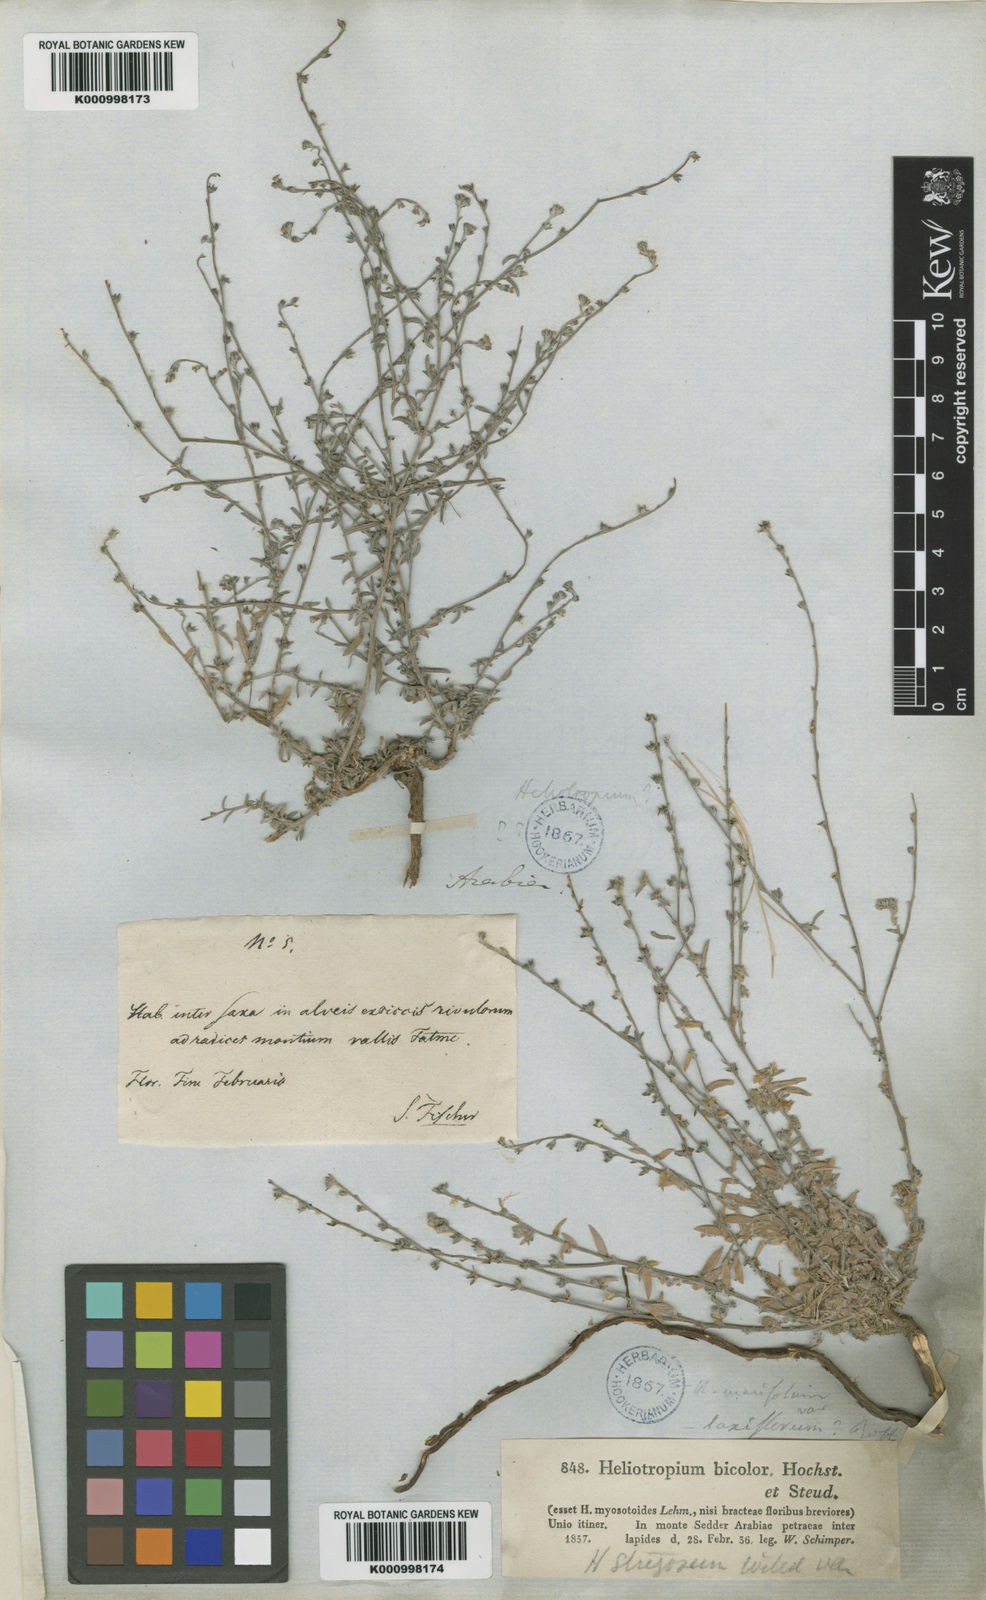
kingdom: Plantae
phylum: Tracheophyta
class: Magnoliopsida
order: Boraginales
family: Heliotropiaceae
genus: Euploca
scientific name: Euploca strigosa
